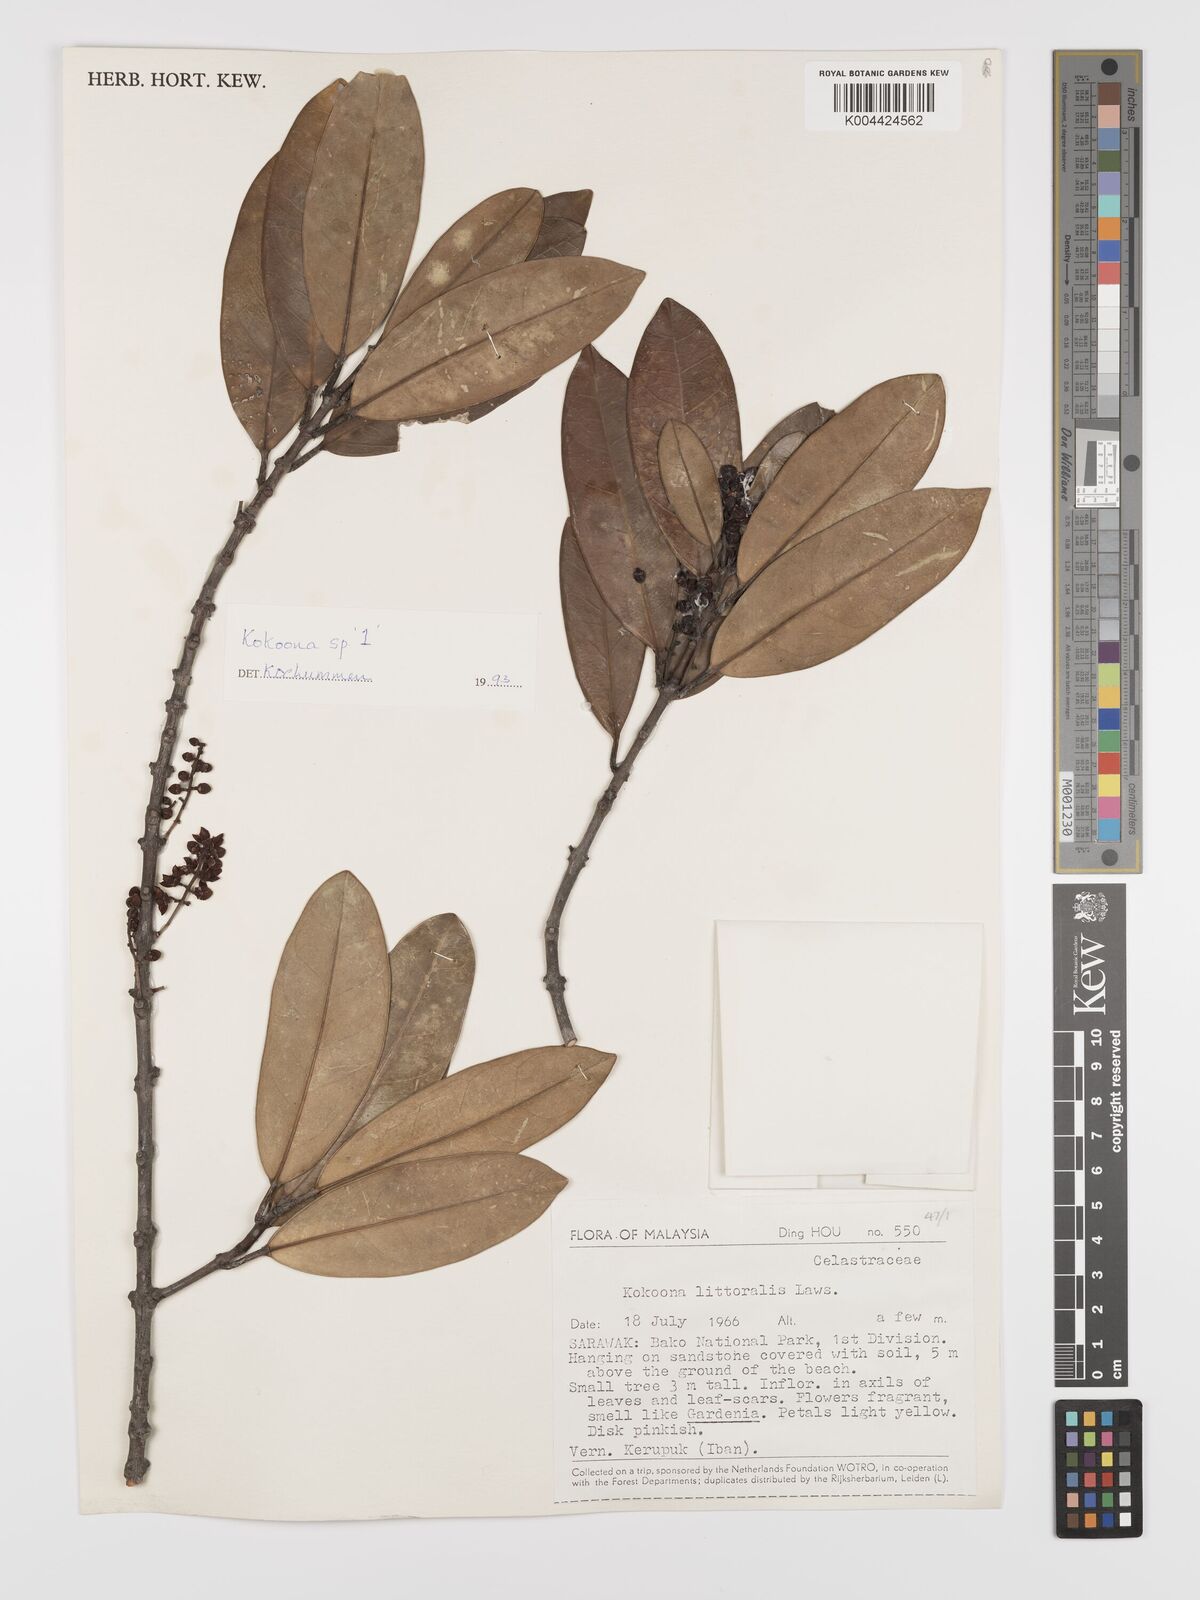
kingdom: Plantae
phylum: Tracheophyta
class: Magnoliopsida
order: Celastrales
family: Celastraceae
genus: Kokoona
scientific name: Kokoona littoralis
